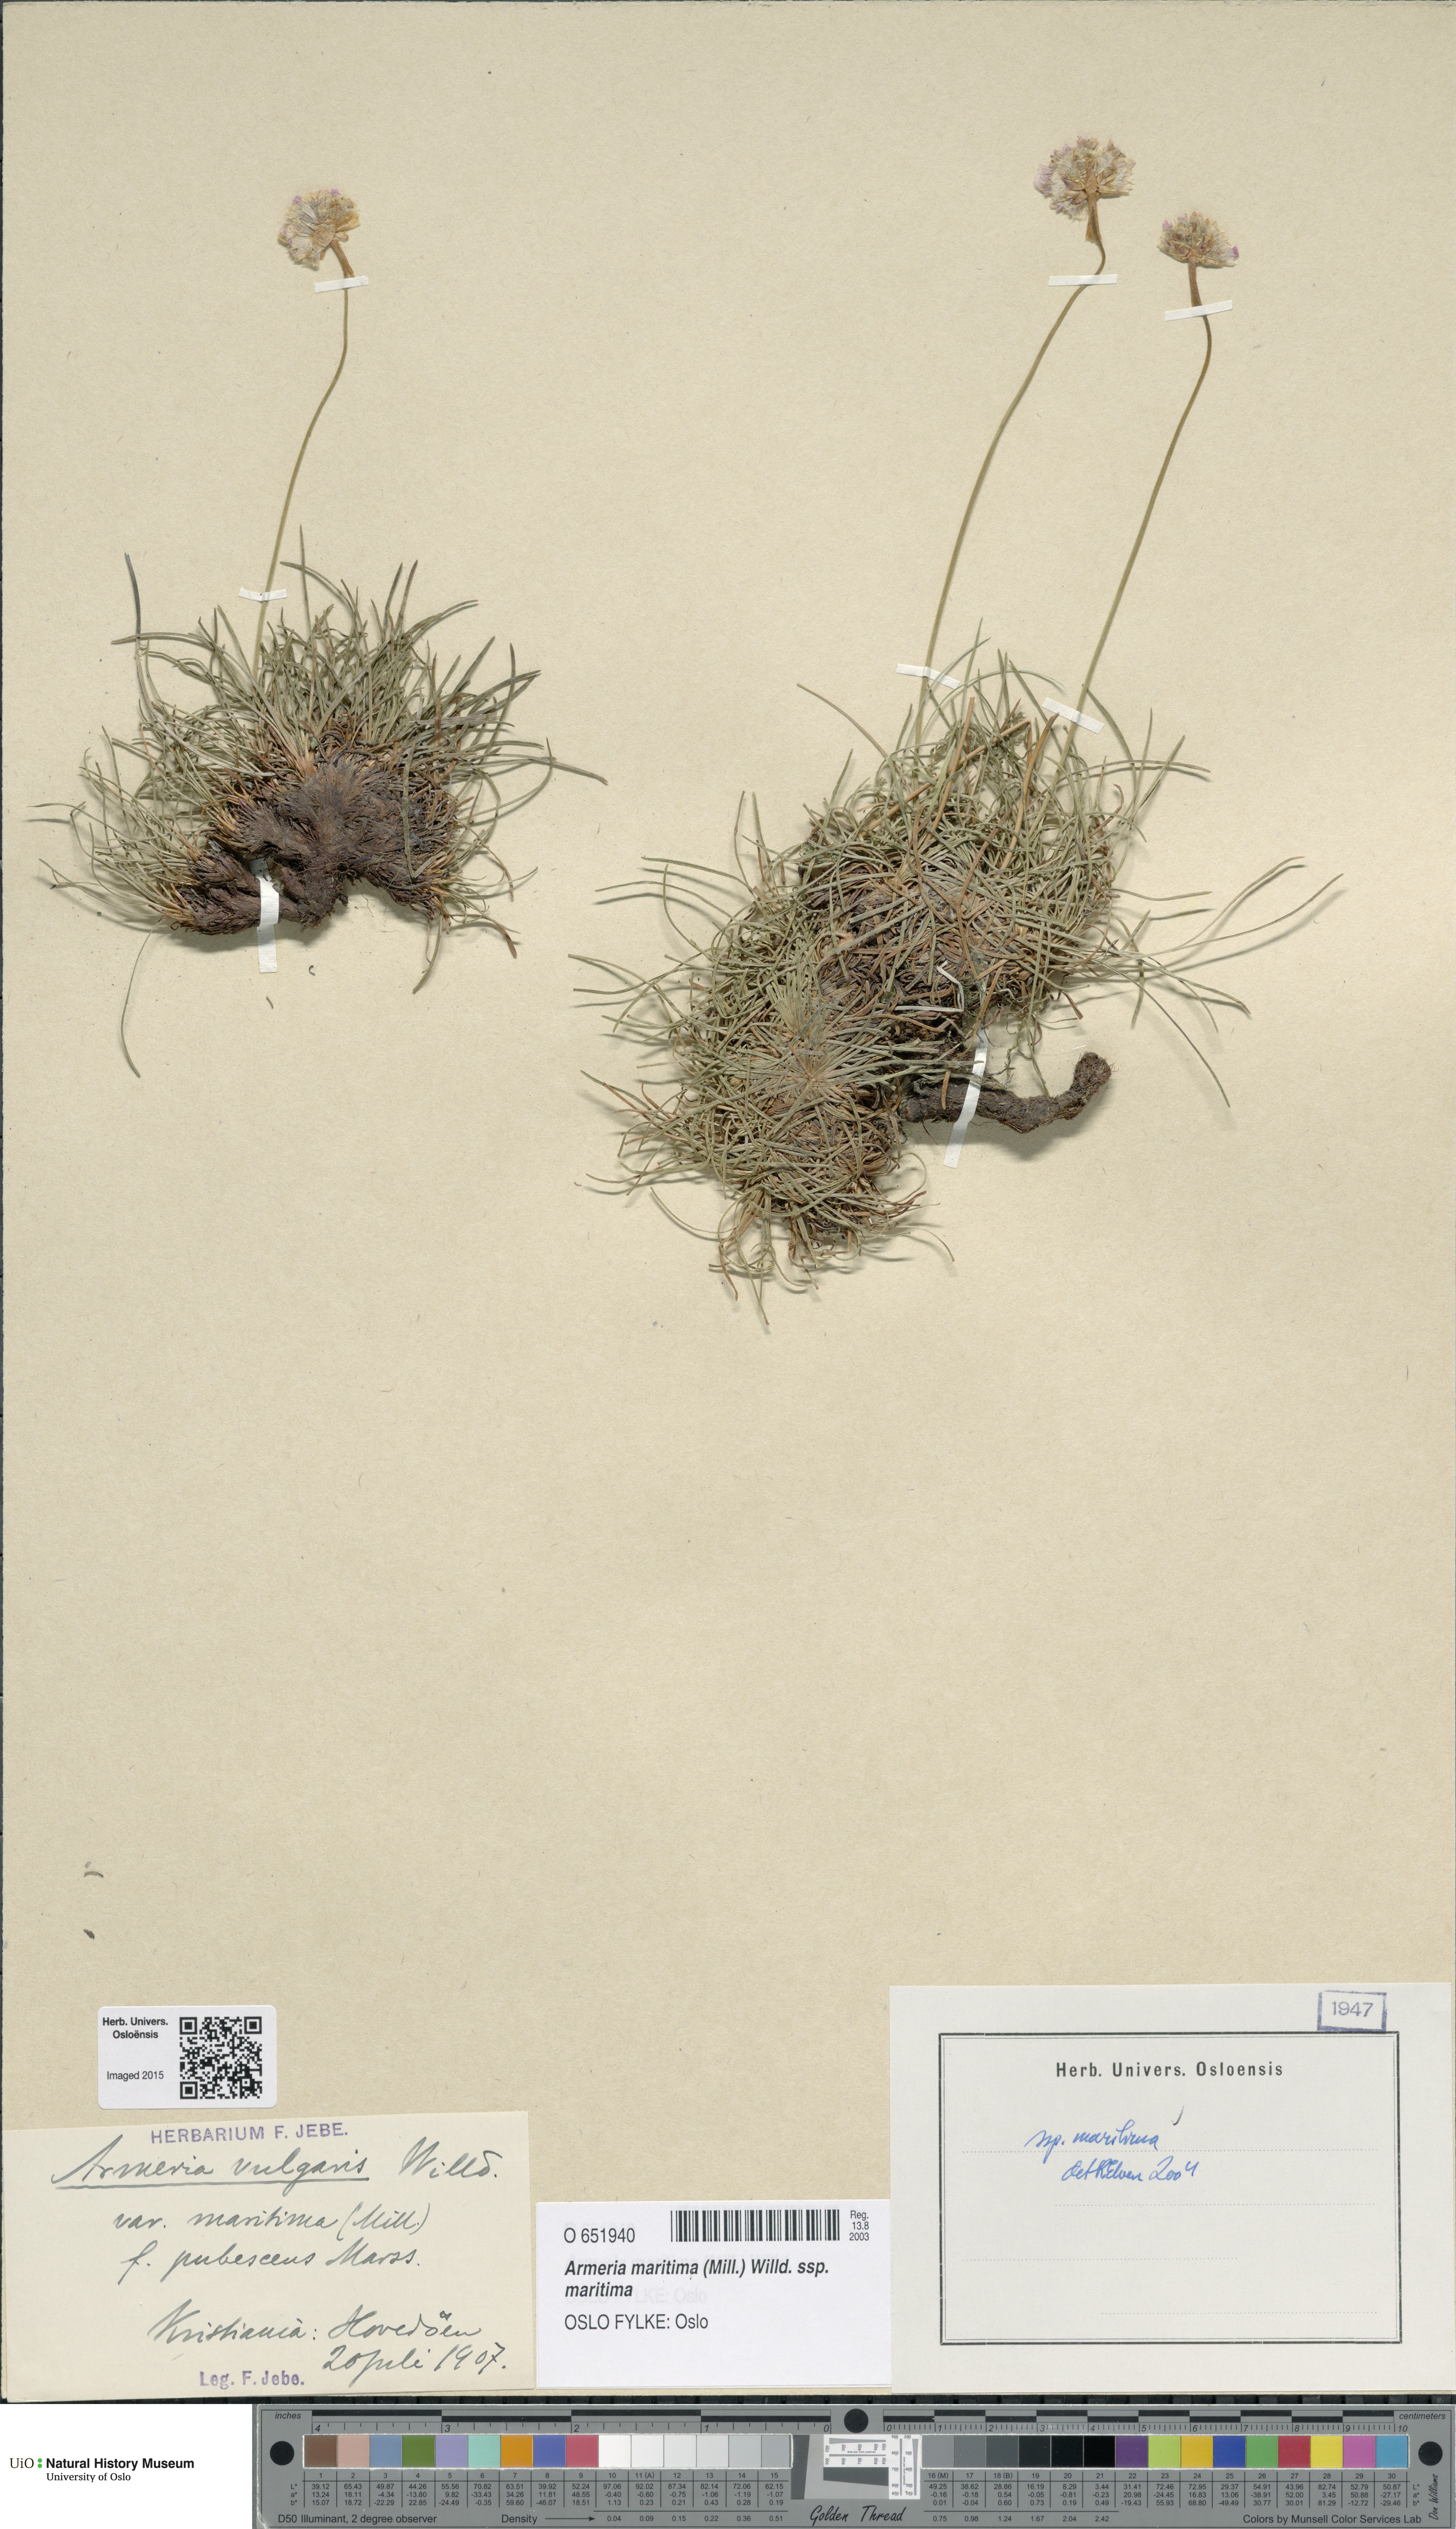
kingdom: Plantae
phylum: Tracheophyta
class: Magnoliopsida
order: Caryophyllales
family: Plumbaginaceae
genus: Armeria
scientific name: Armeria maritima
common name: Thrift
